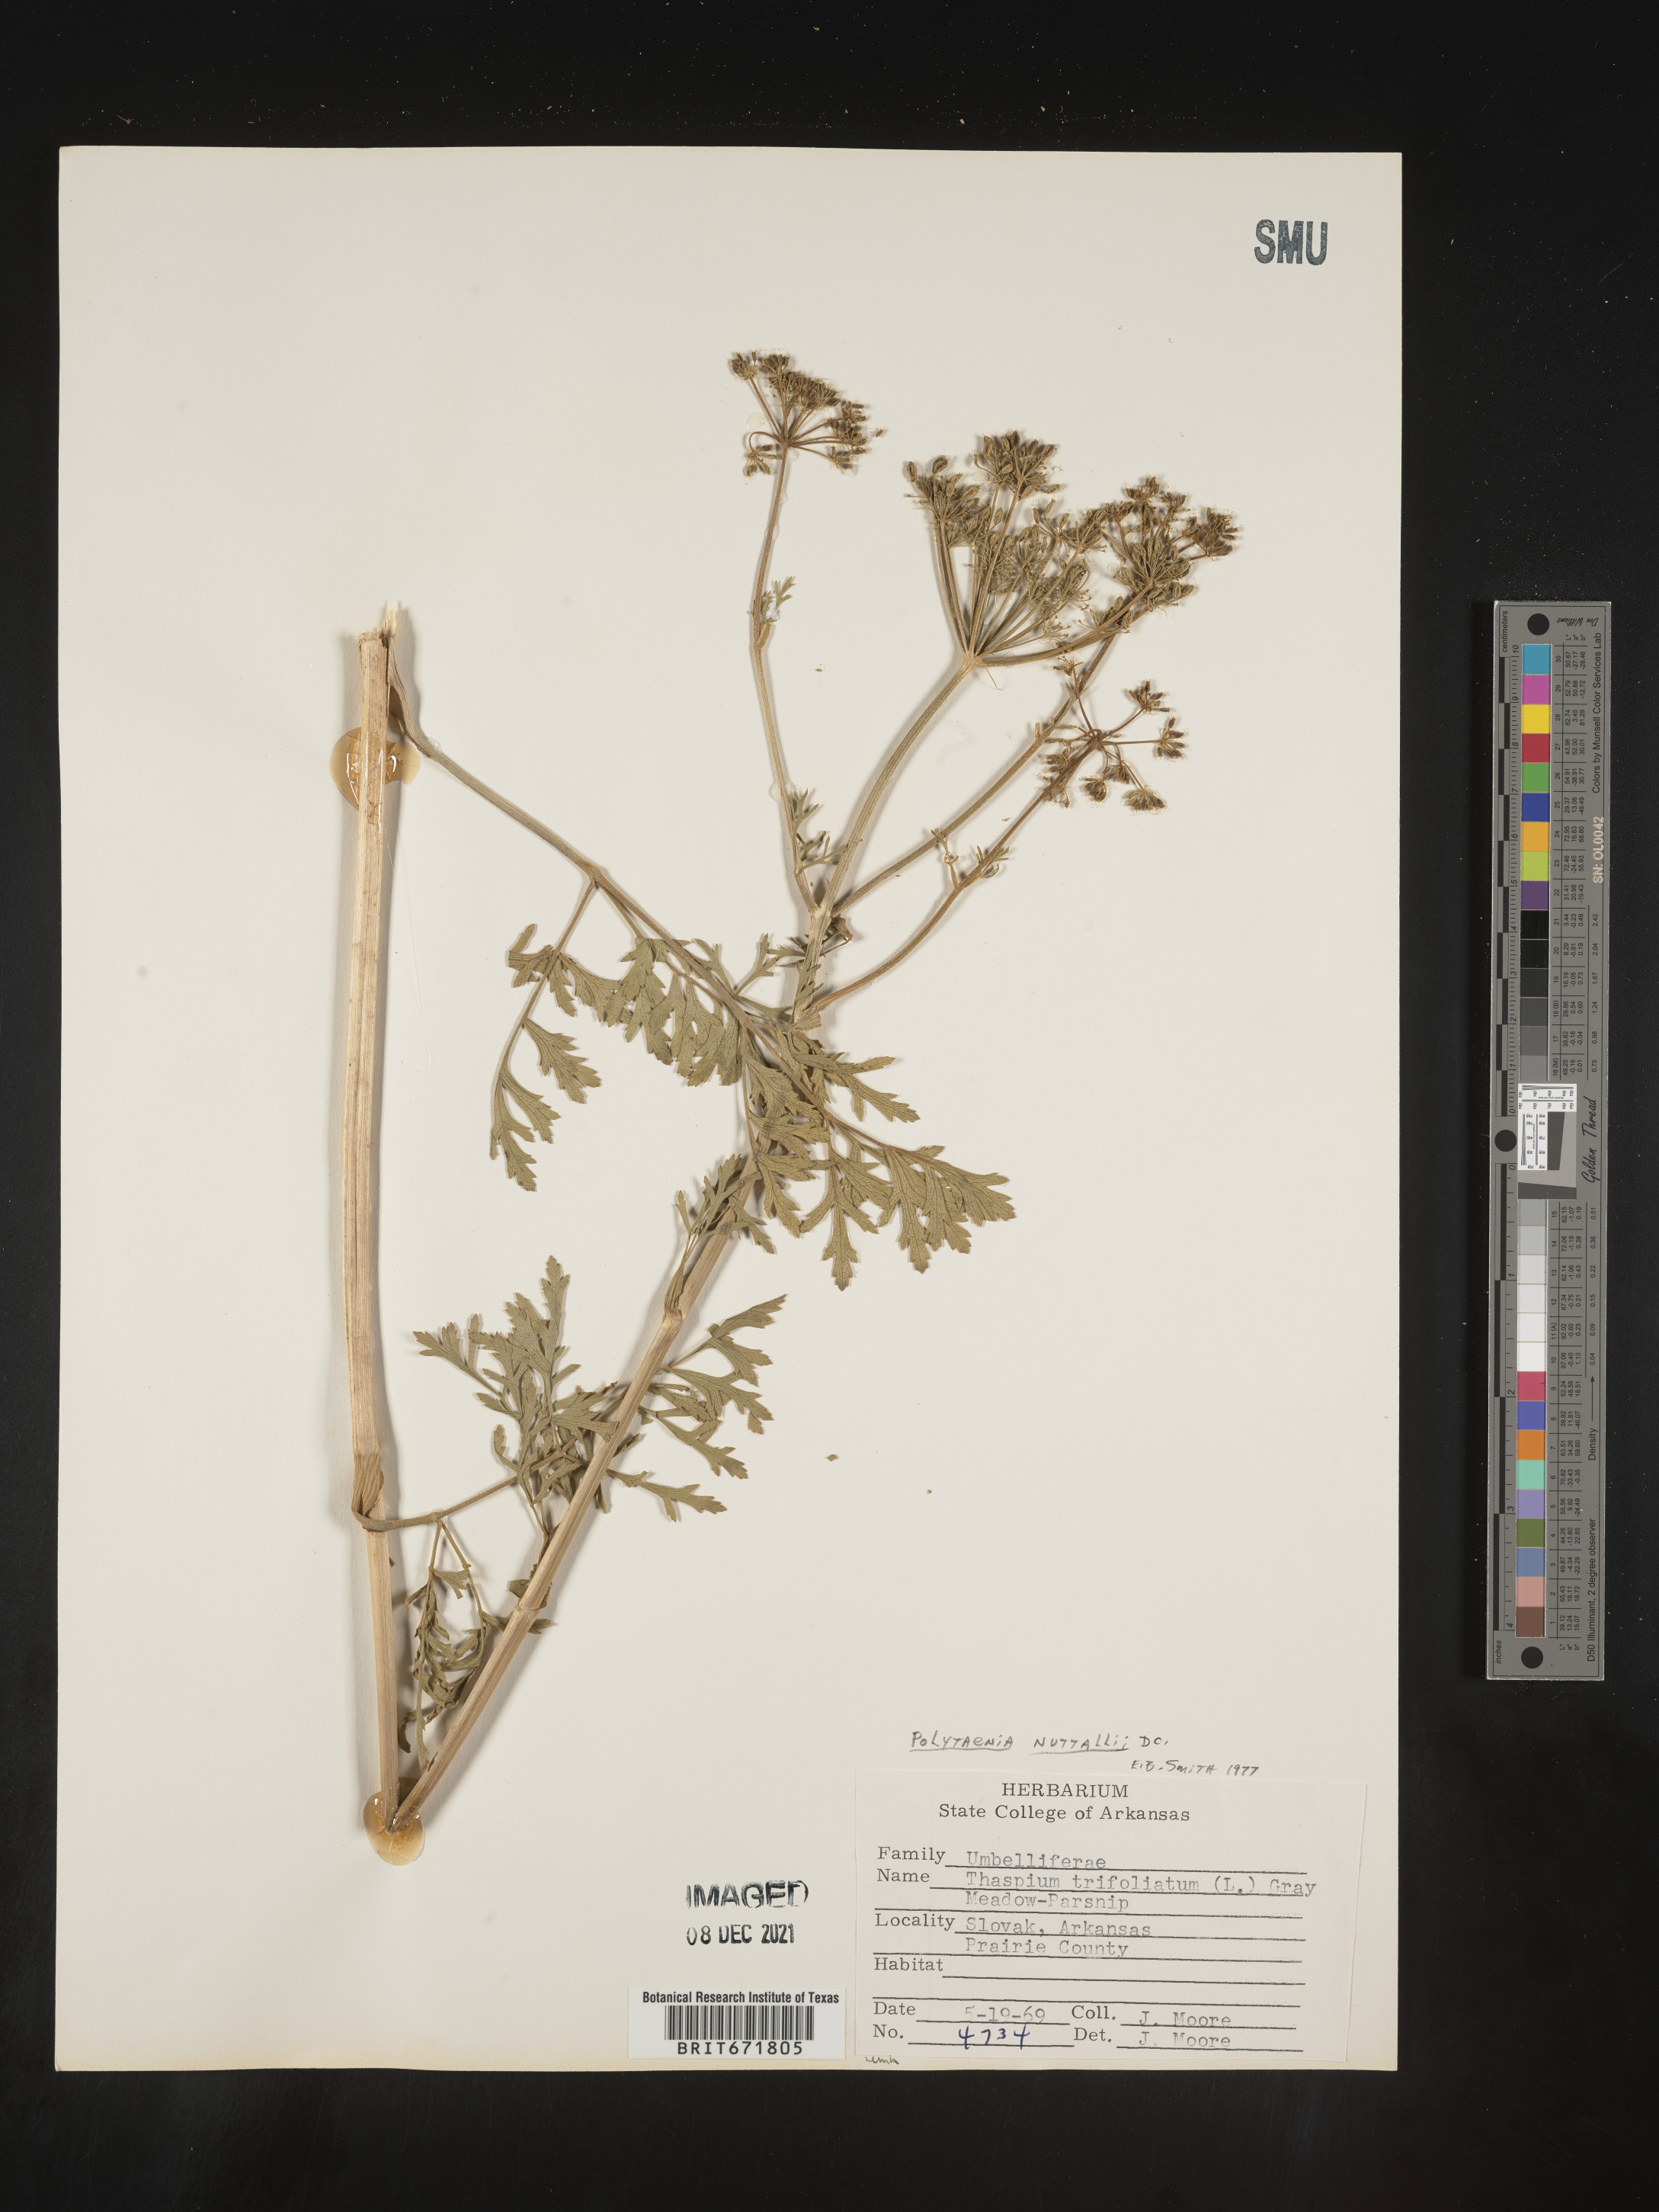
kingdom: Plantae
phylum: Tracheophyta
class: Magnoliopsida
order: Apiales
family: Apiaceae
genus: Polytaenia
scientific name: Polytaenia nuttallii
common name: Prairie-parsley
